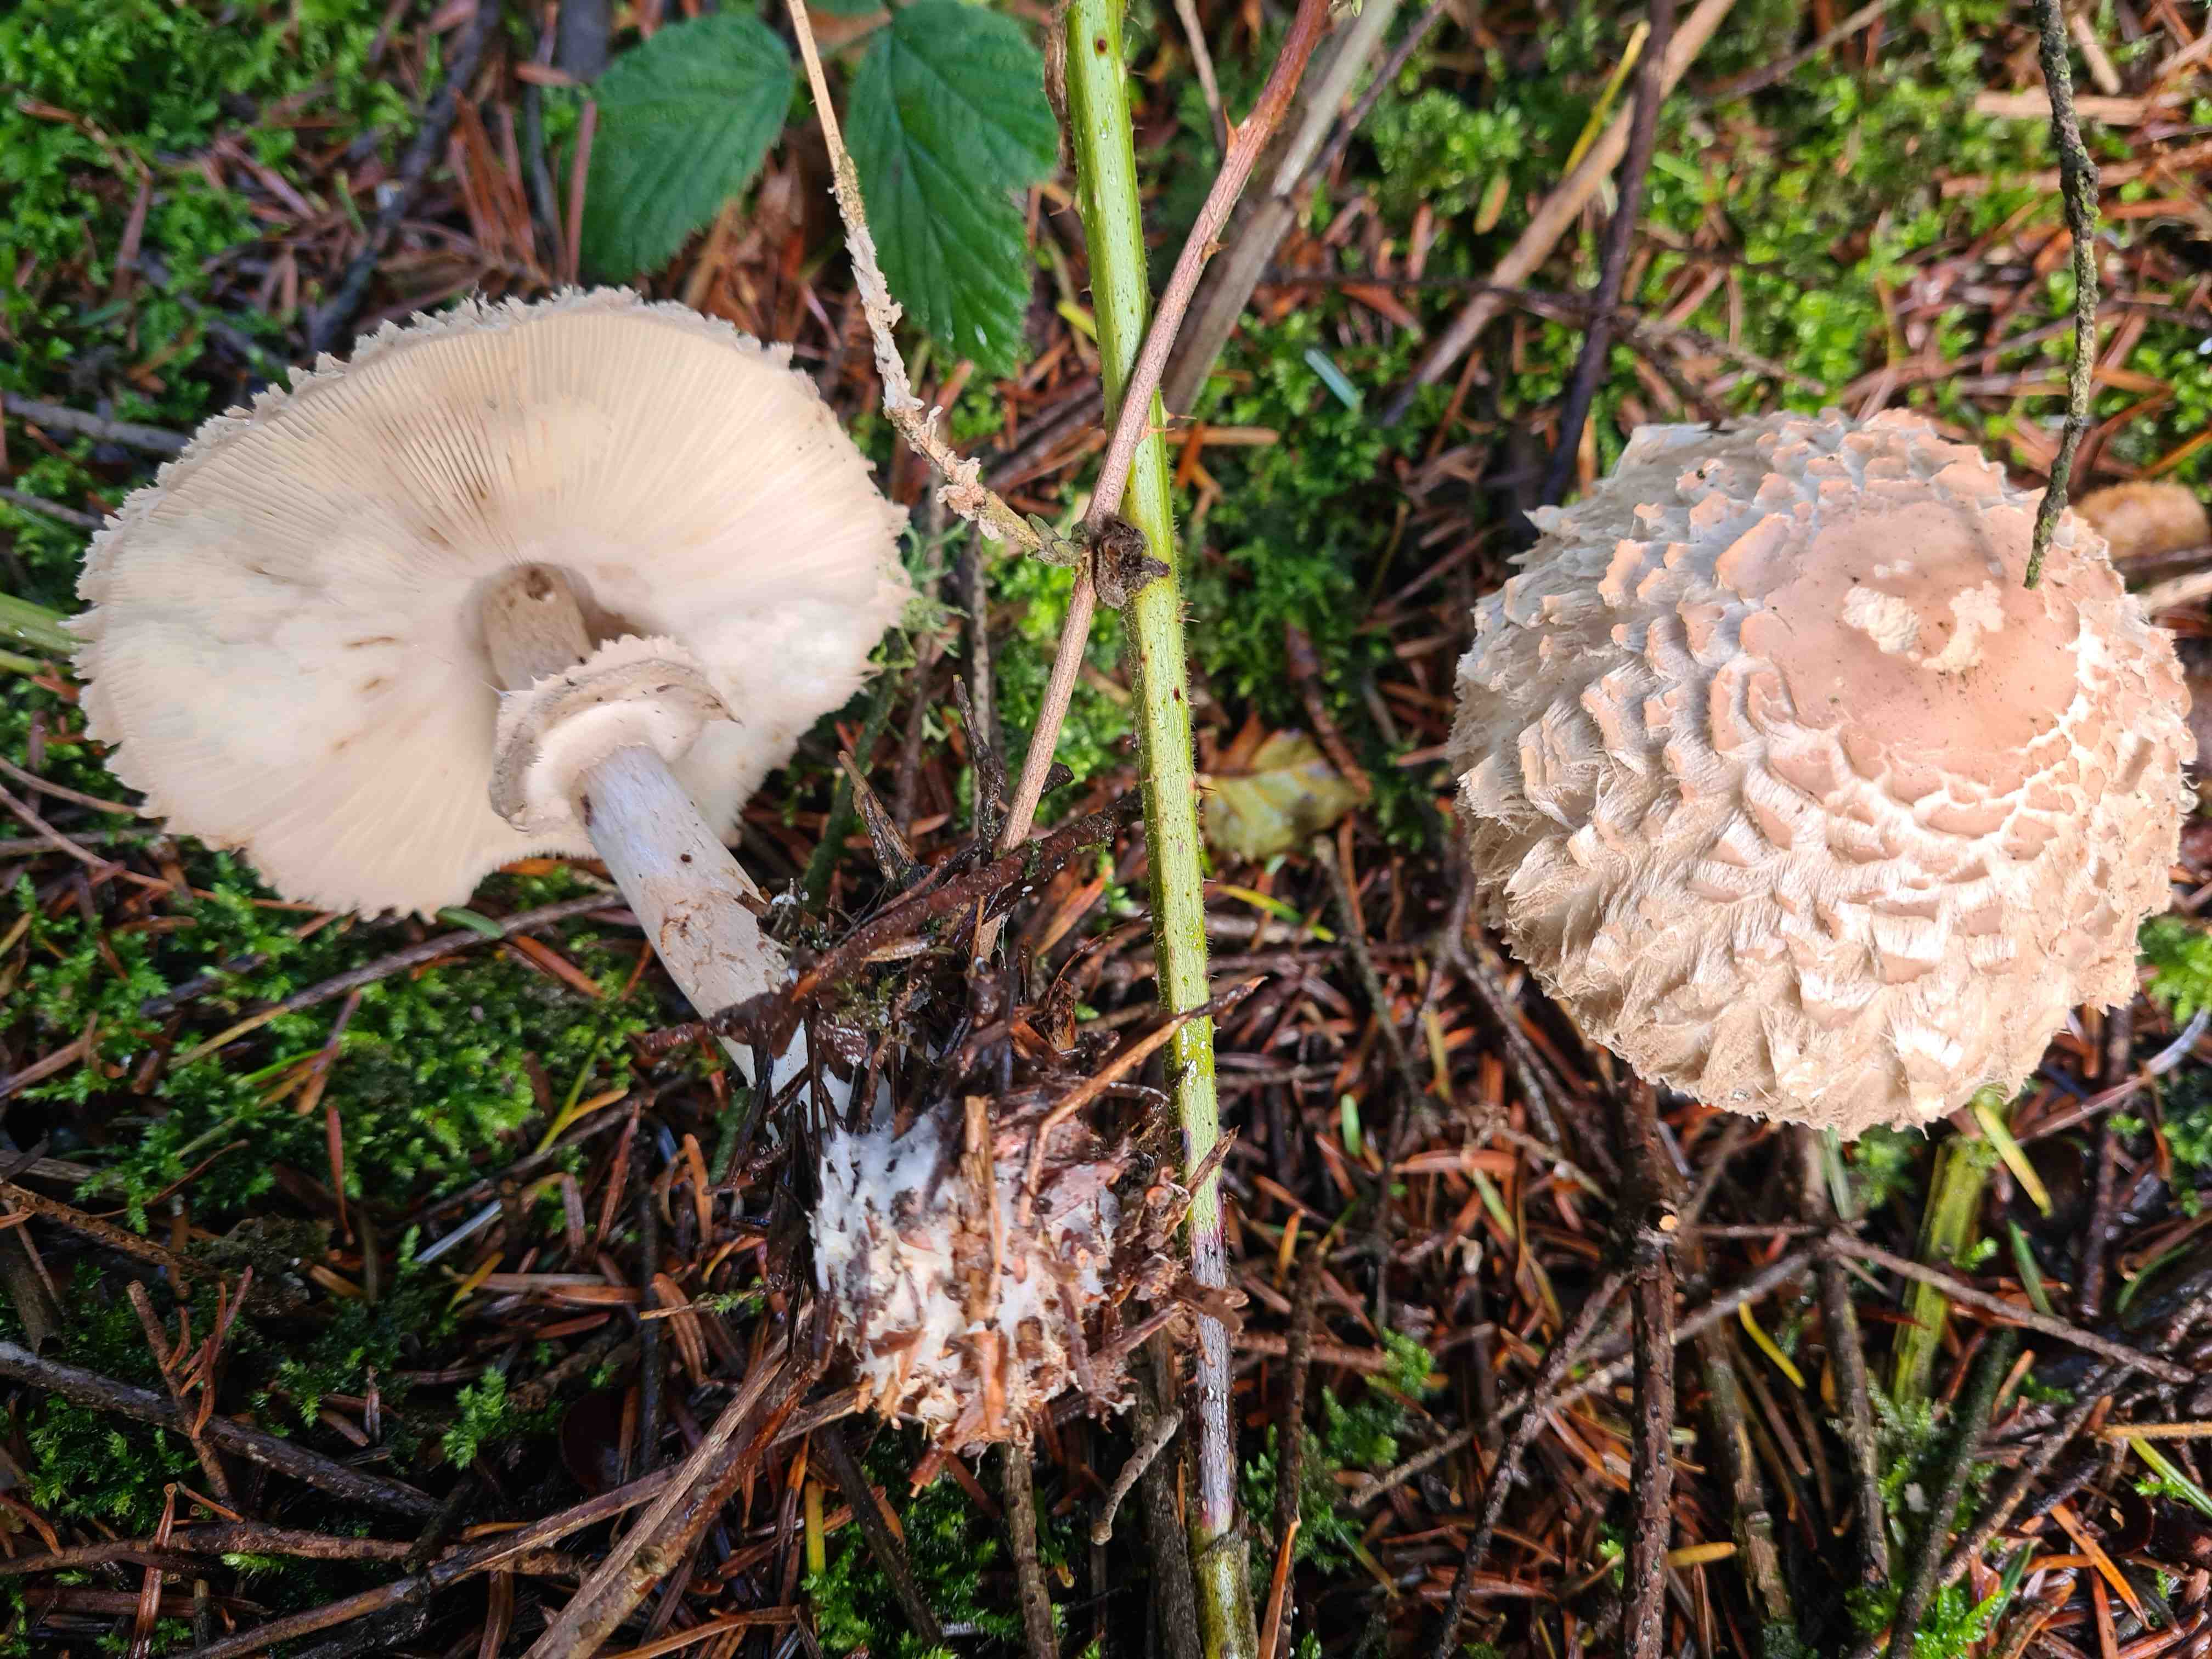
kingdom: Fungi
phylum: Basidiomycota
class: Agaricomycetes
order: Agaricales
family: Agaricaceae
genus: Chlorophyllum
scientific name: Chlorophyllum olivieri
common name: almindelig rabarberhat
